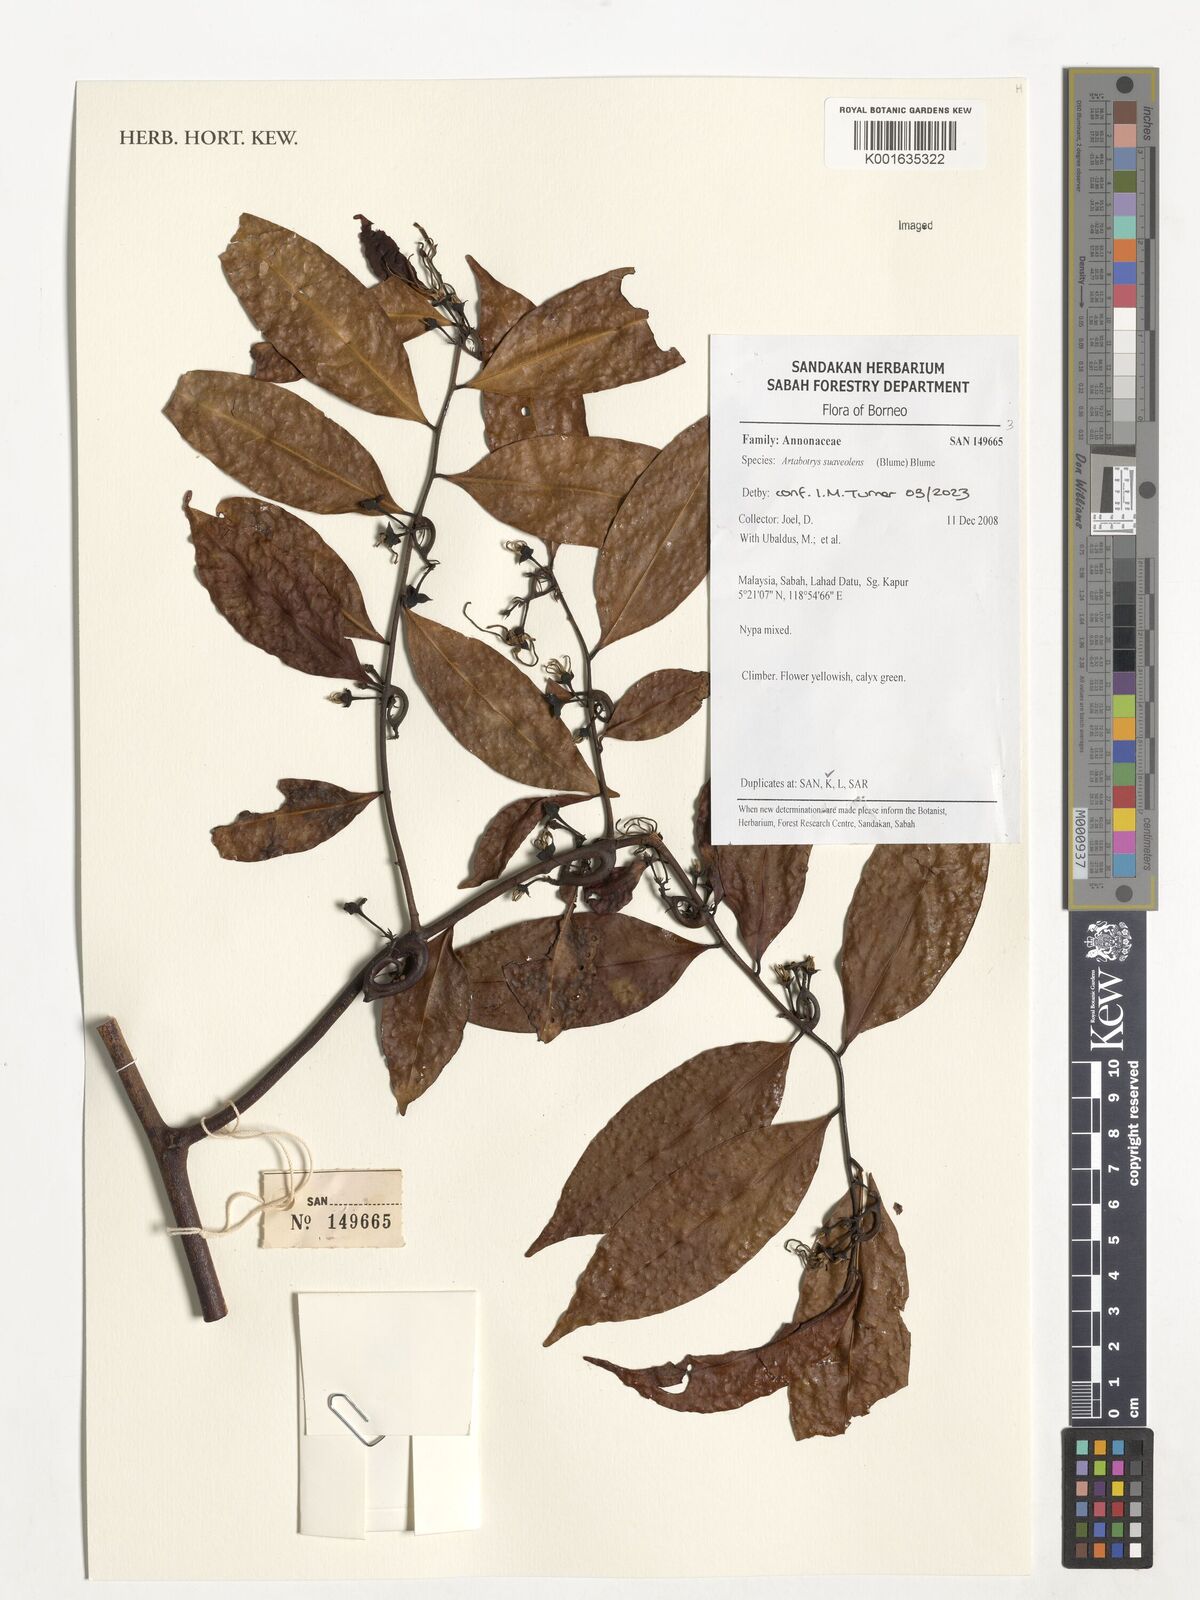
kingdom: Plantae
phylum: Tracheophyta
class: Magnoliopsida
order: Magnoliales
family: Annonaceae
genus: Artabotrys
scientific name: Artabotrys suaveolens
